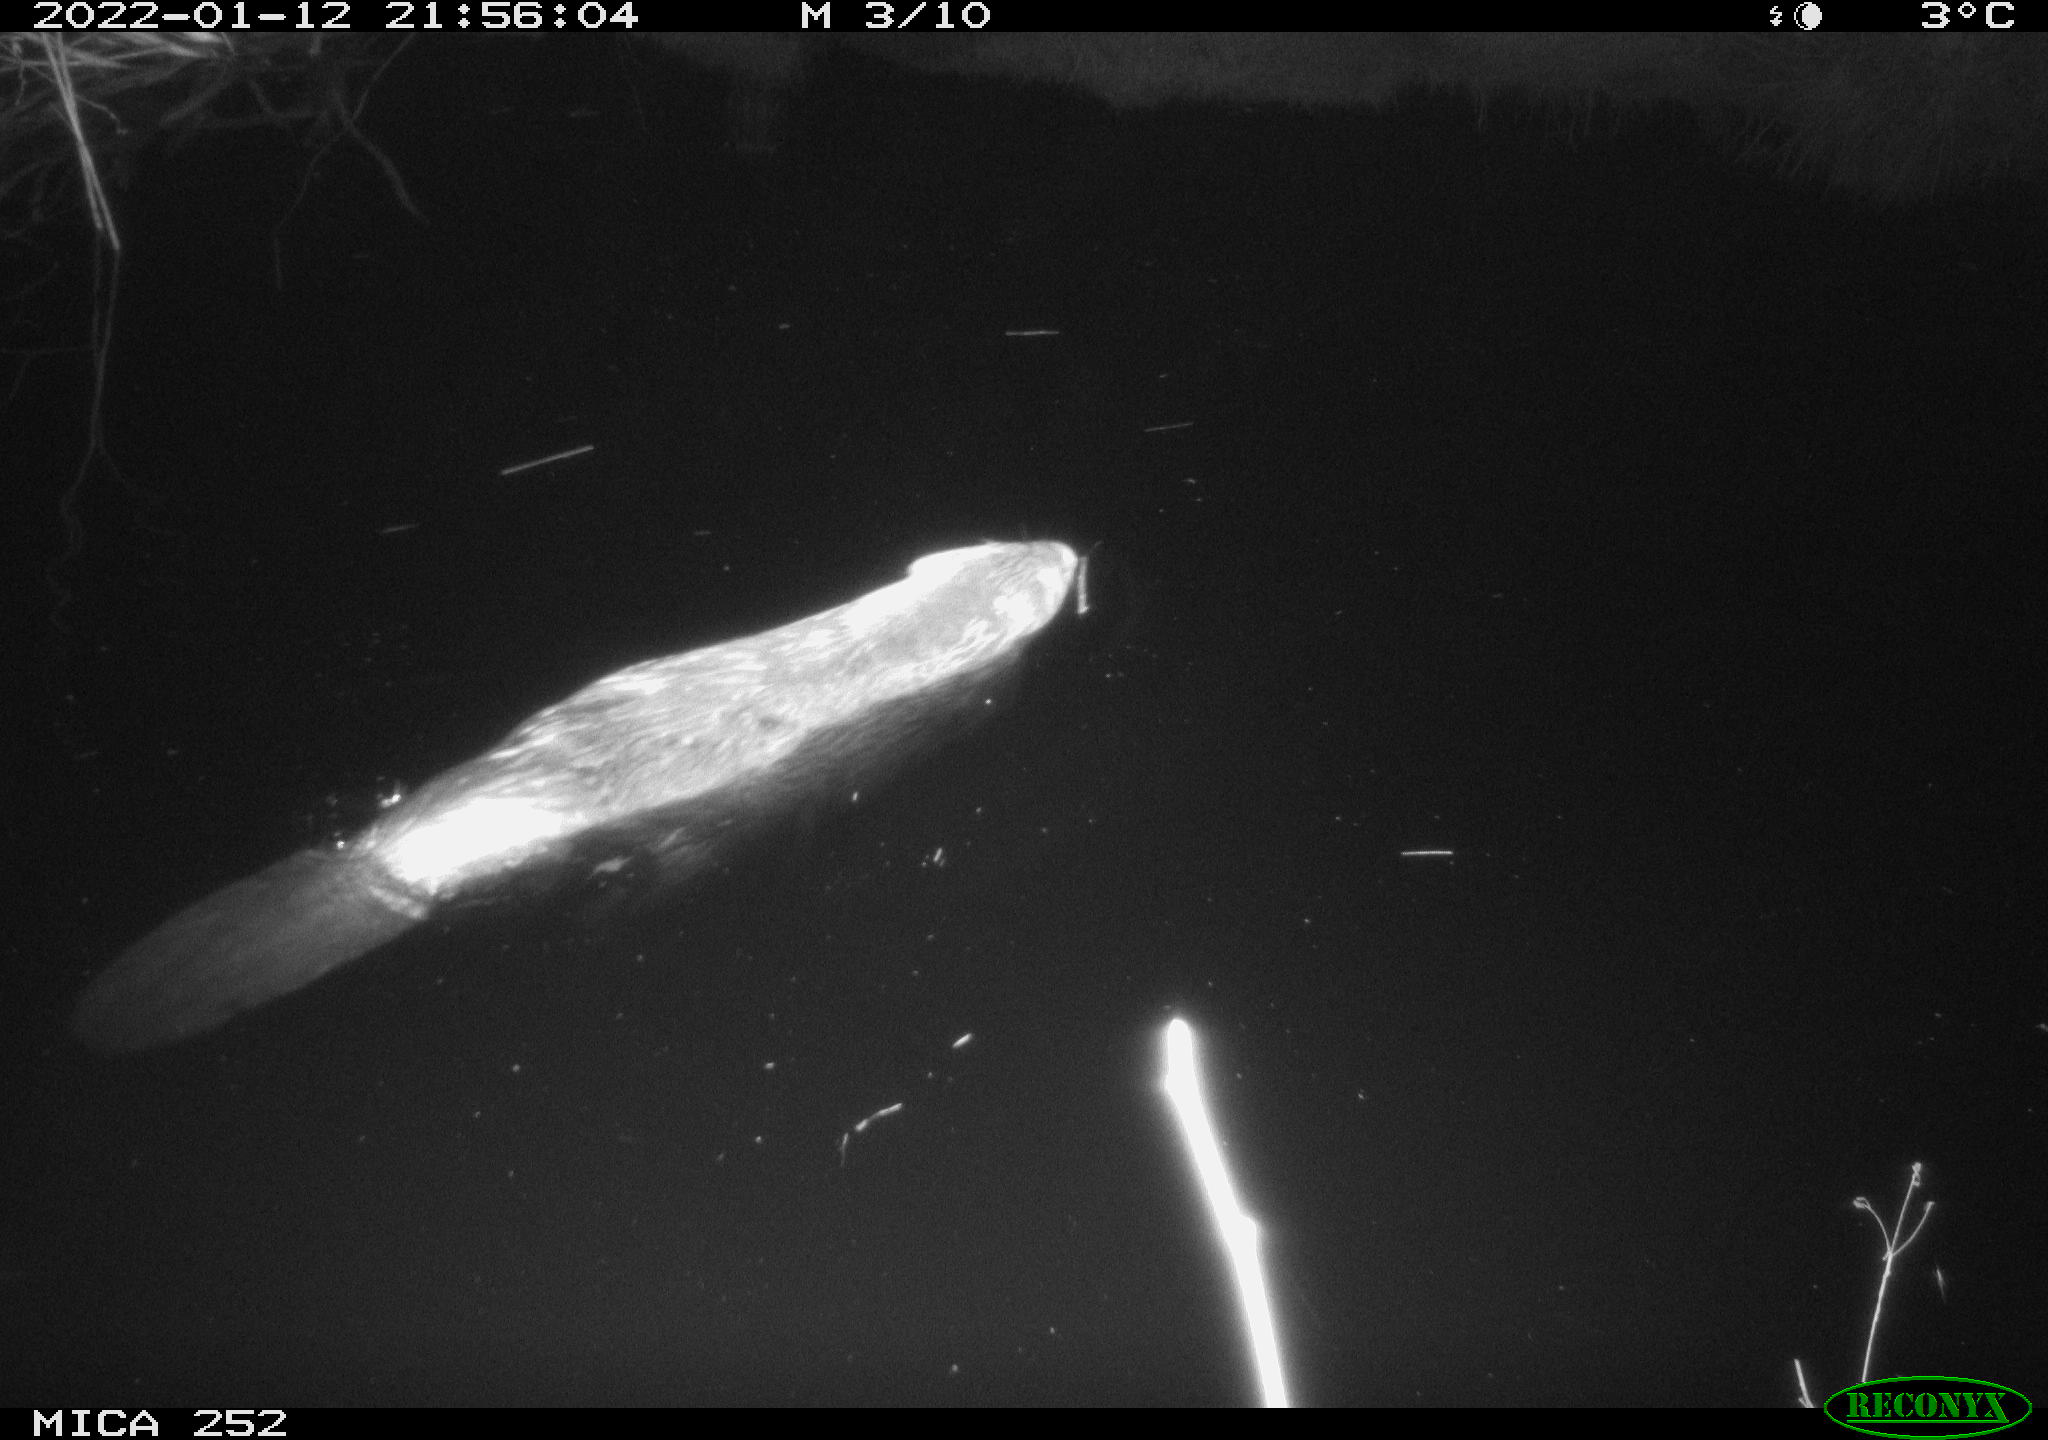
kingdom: Animalia
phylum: Chordata
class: Mammalia
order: Rodentia
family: Muridae
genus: Rattus
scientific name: Rattus norvegicus
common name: Brown rat
